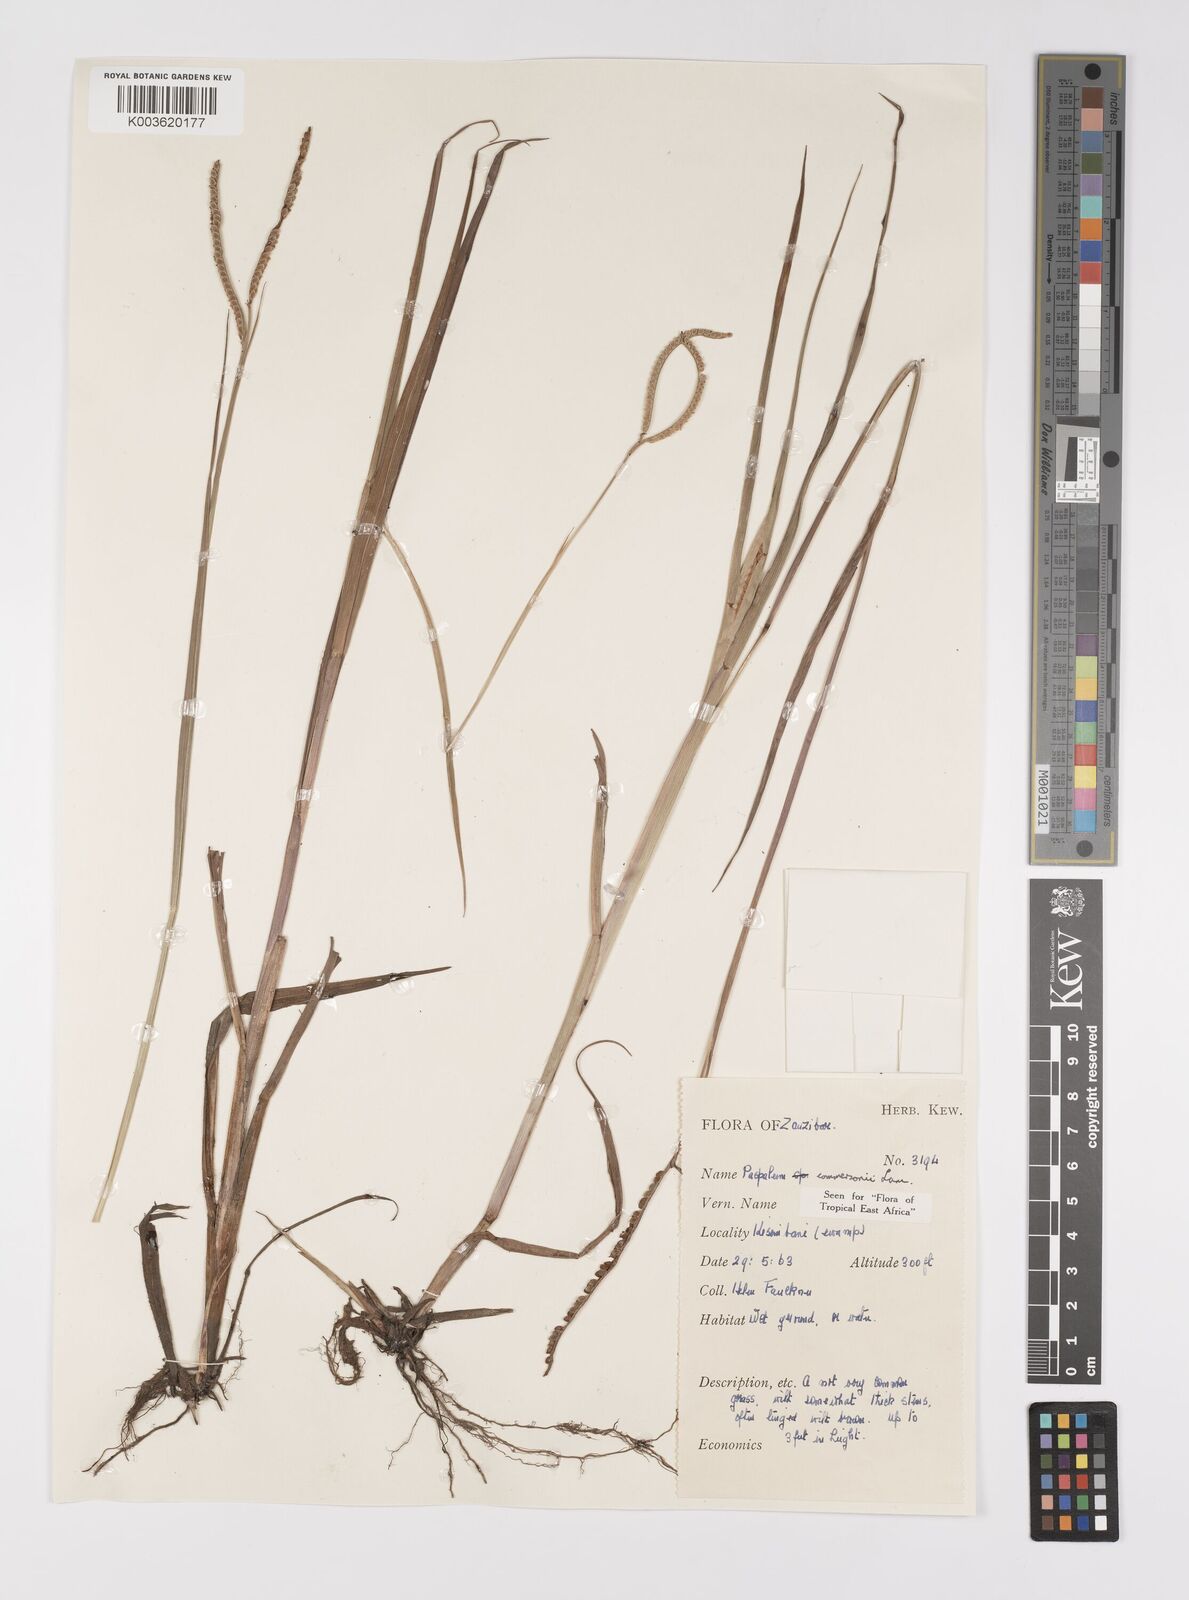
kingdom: Plantae
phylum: Tracheophyta
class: Liliopsida
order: Poales
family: Poaceae
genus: Paspalum
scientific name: Paspalum scrobiculatum
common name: Kodo millet
